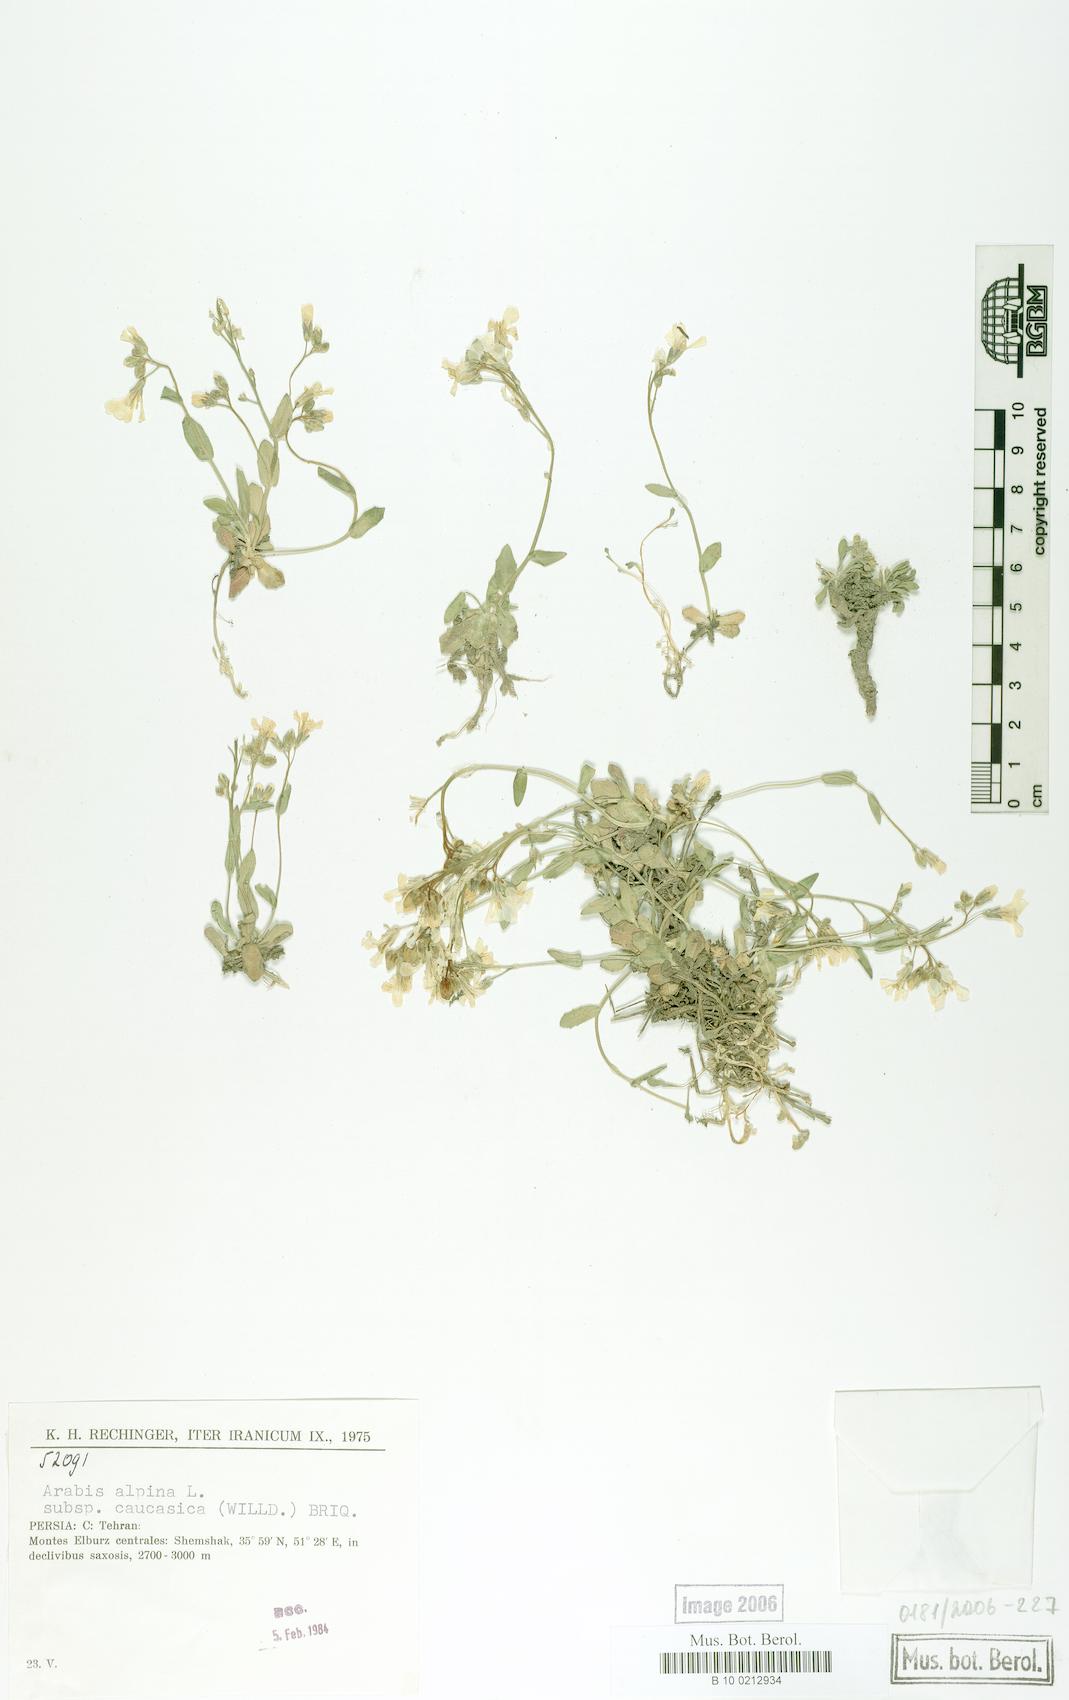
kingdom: Plantae
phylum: Tracheophyta
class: Magnoliopsida
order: Brassicales
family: Brassicaceae
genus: Arabis
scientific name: Arabis caucasica
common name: Gray rockcress
